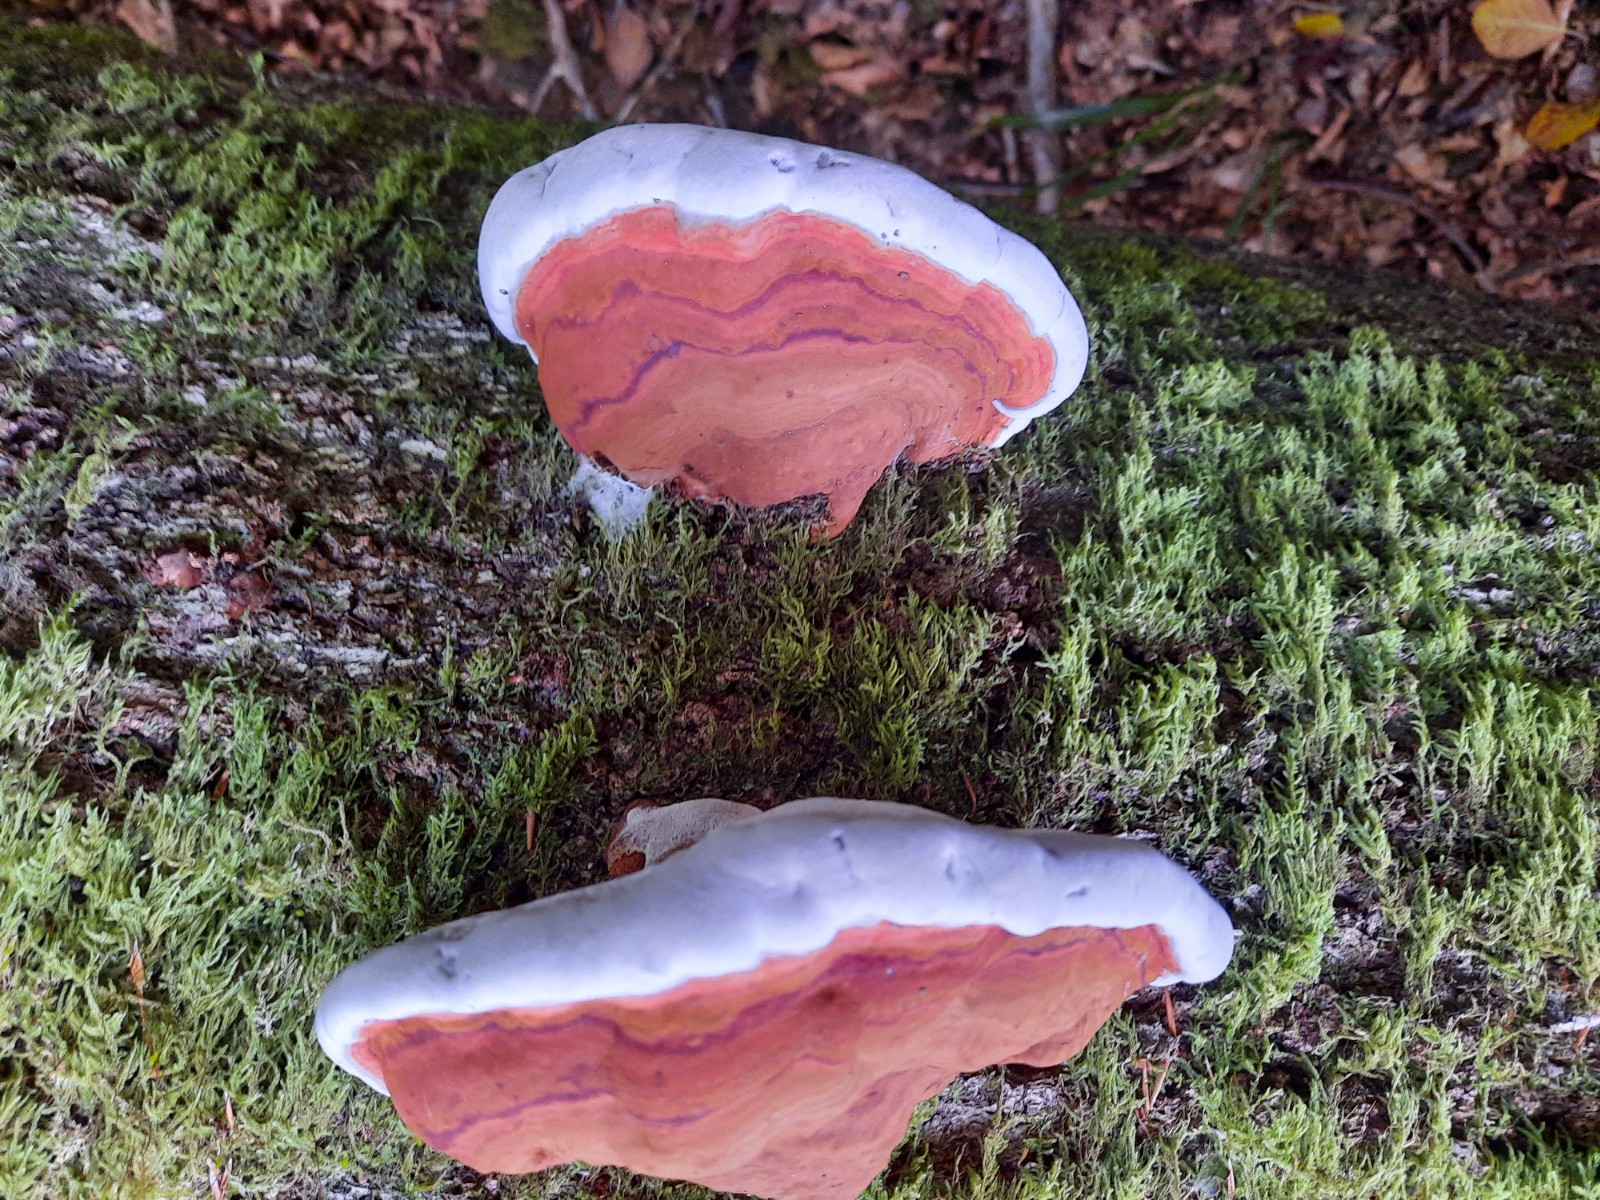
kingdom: Fungi
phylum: Basidiomycota
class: Agaricomycetes
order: Polyporales
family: Polyporaceae
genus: Ganoderma
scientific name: Ganoderma applanatum
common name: flad lakporesvamp
